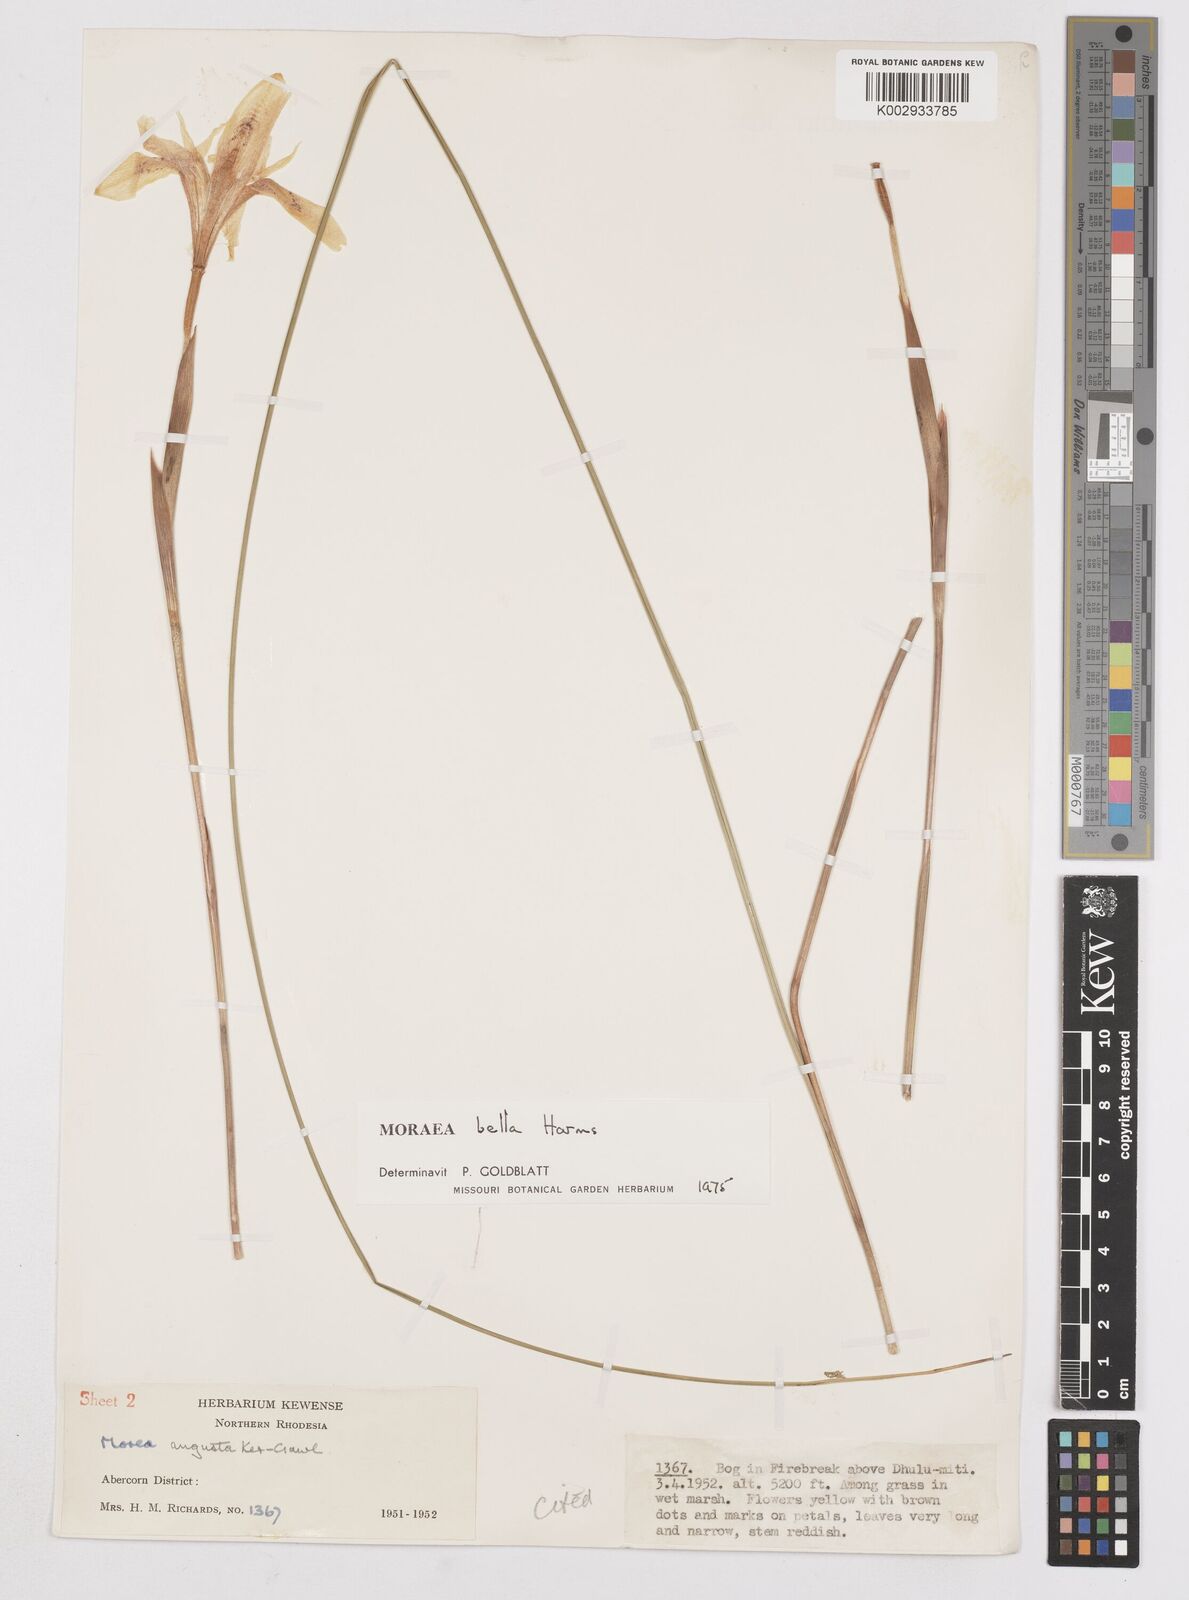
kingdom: Plantae
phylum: Tracheophyta
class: Liliopsida
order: Asparagales
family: Iridaceae
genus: Moraea
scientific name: Moraea bella
